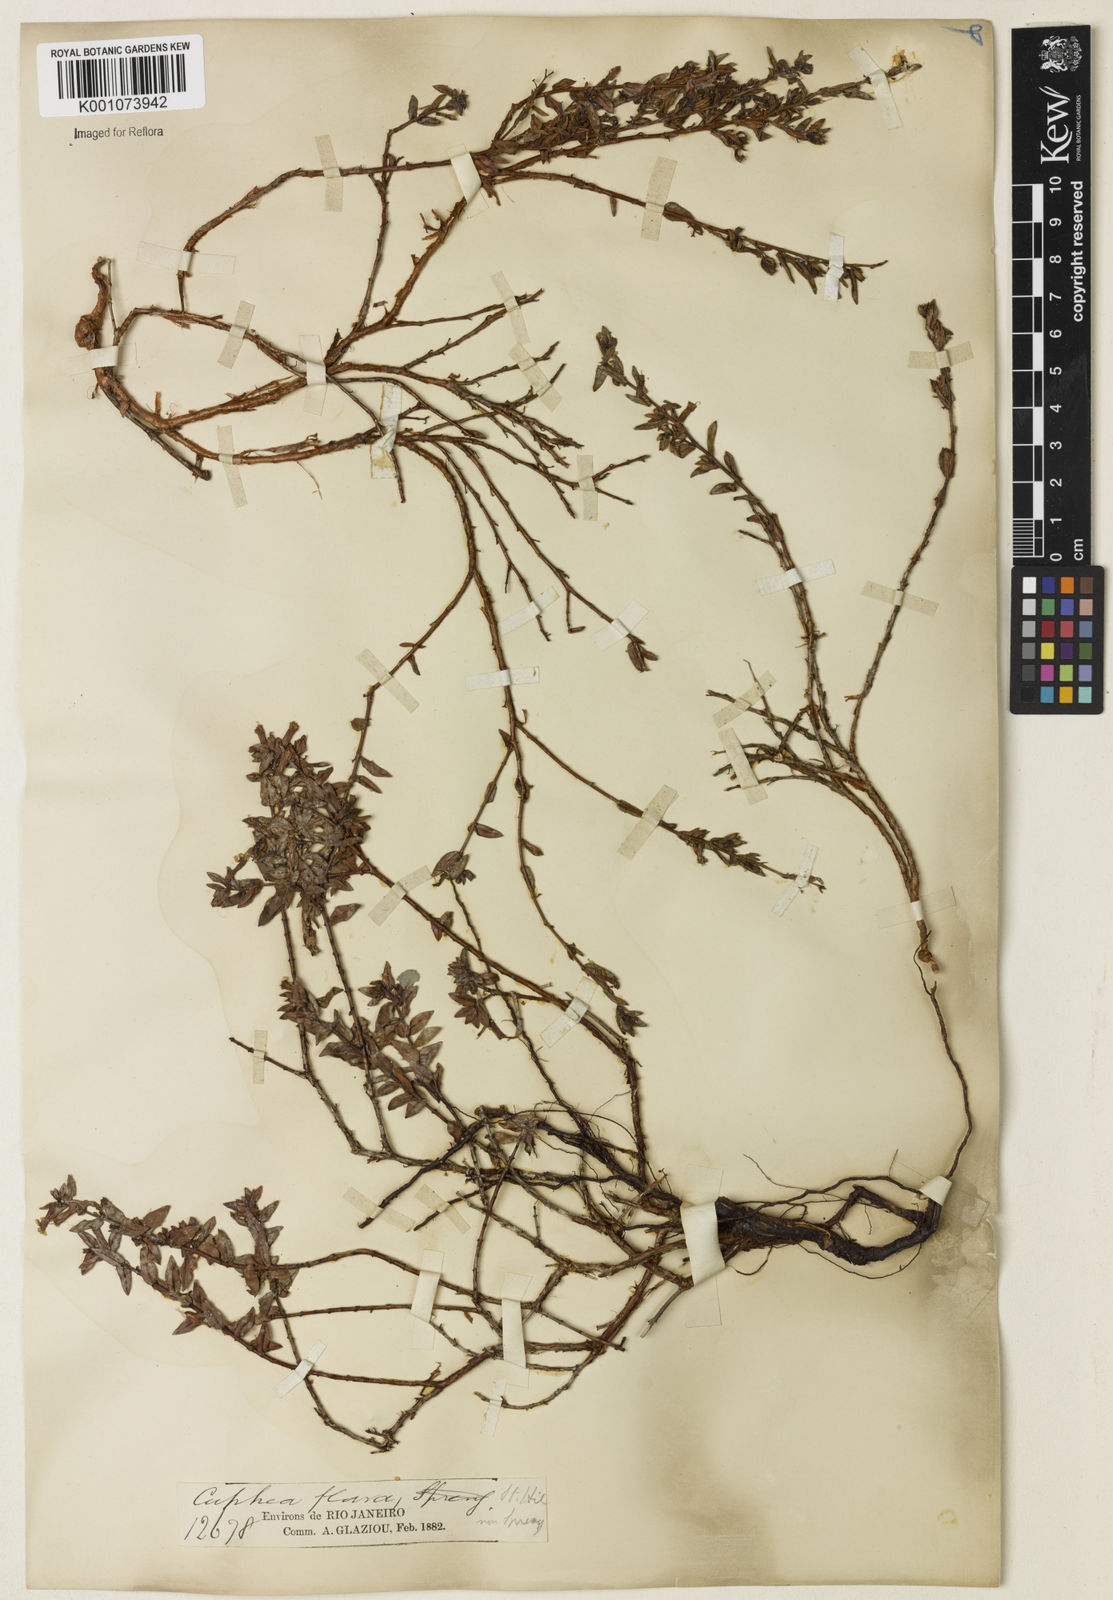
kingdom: Plantae
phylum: Tracheophyta
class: Magnoliopsida
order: Myrtales
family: Lythraceae
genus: Cuphea
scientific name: Cuphea flava
